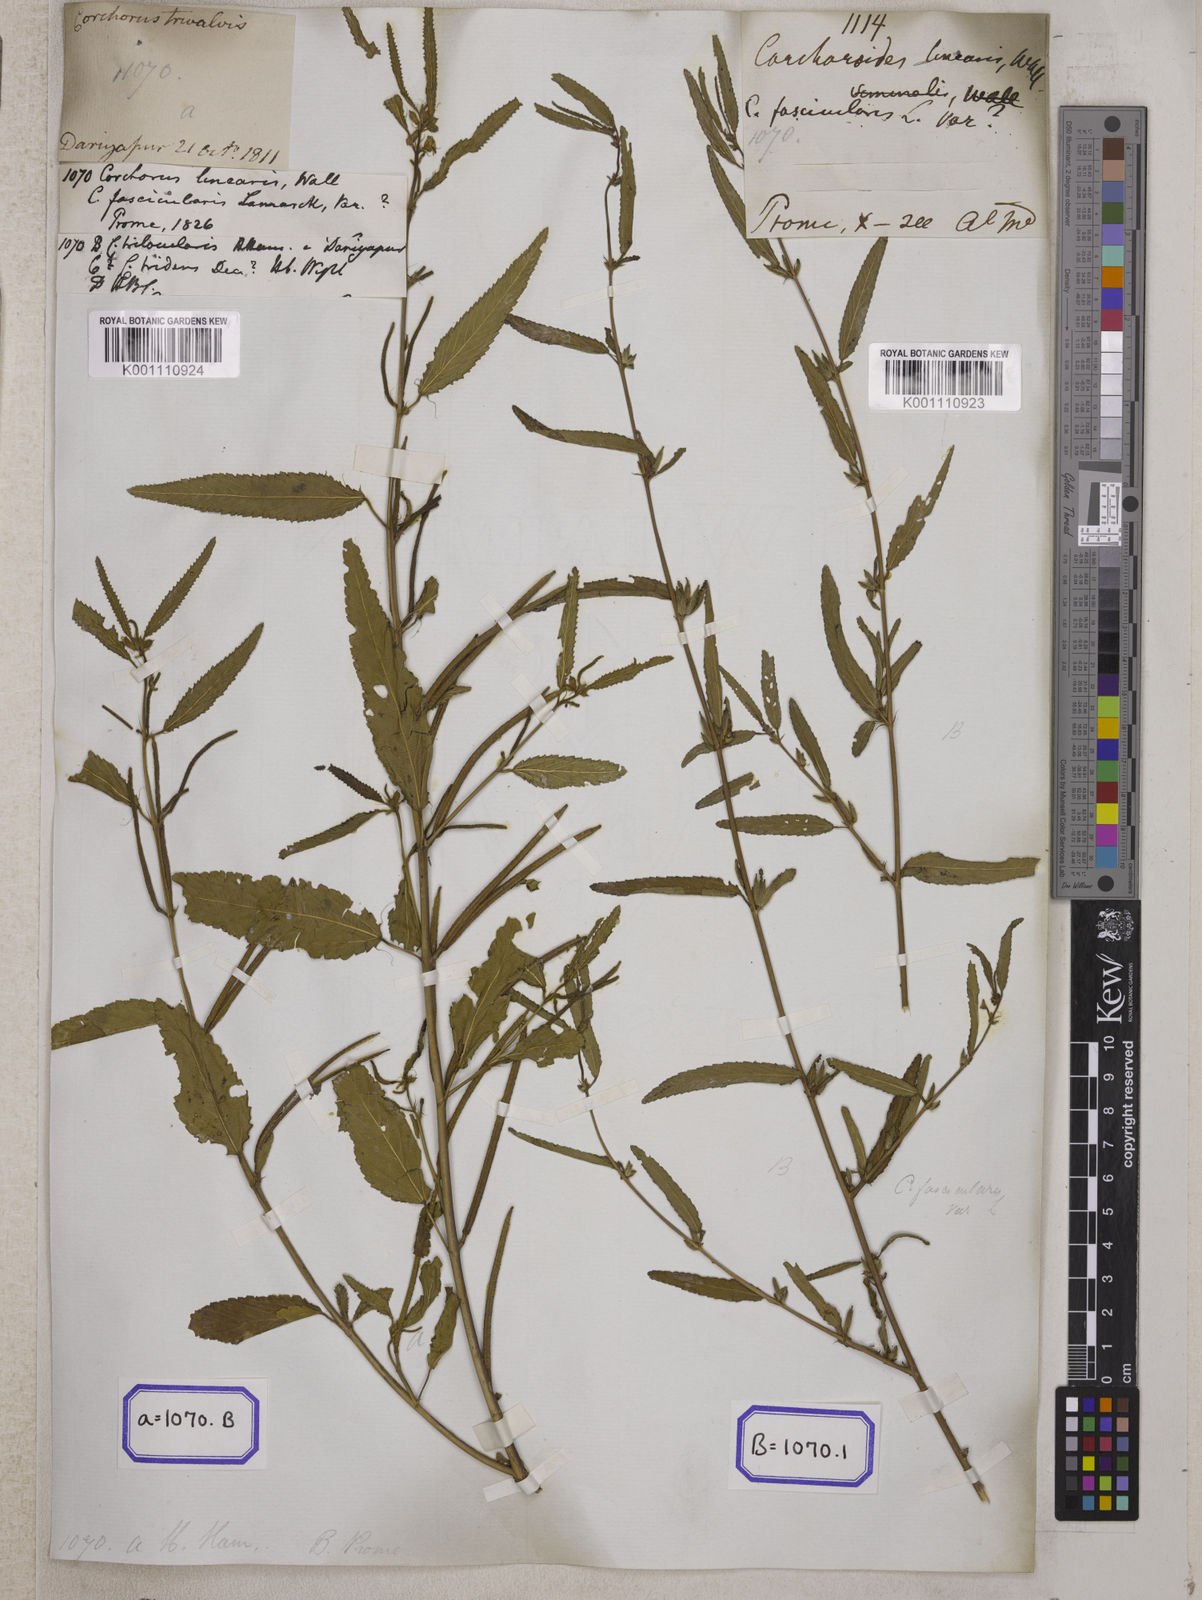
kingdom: Plantae
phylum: Tracheophyta
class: Magnoliopsida
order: Malvales
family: Malvaceae
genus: Corchorus
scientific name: Corchorus
